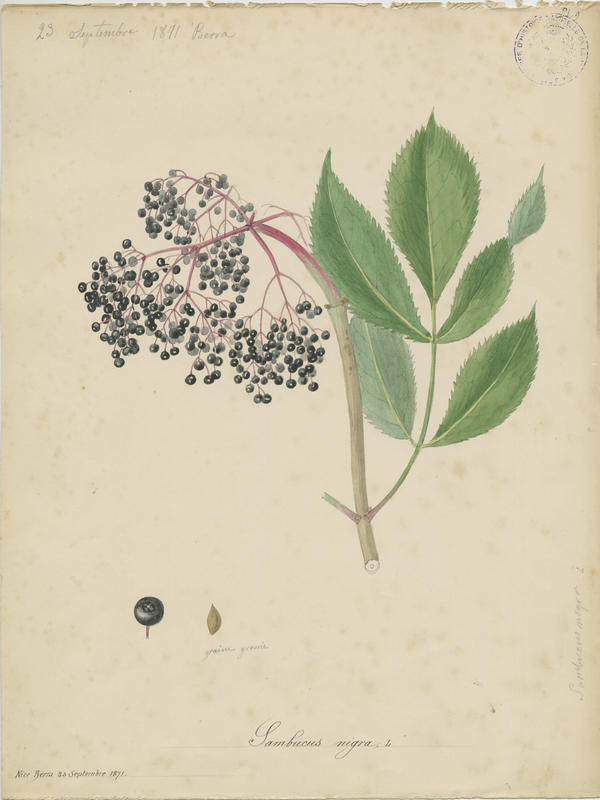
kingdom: Plantae
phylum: Tracheophyta
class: Magnoliopsida
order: Dipsacales
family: Viburnaceae
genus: Sambucus
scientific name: Sambucus nigra
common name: Elder
